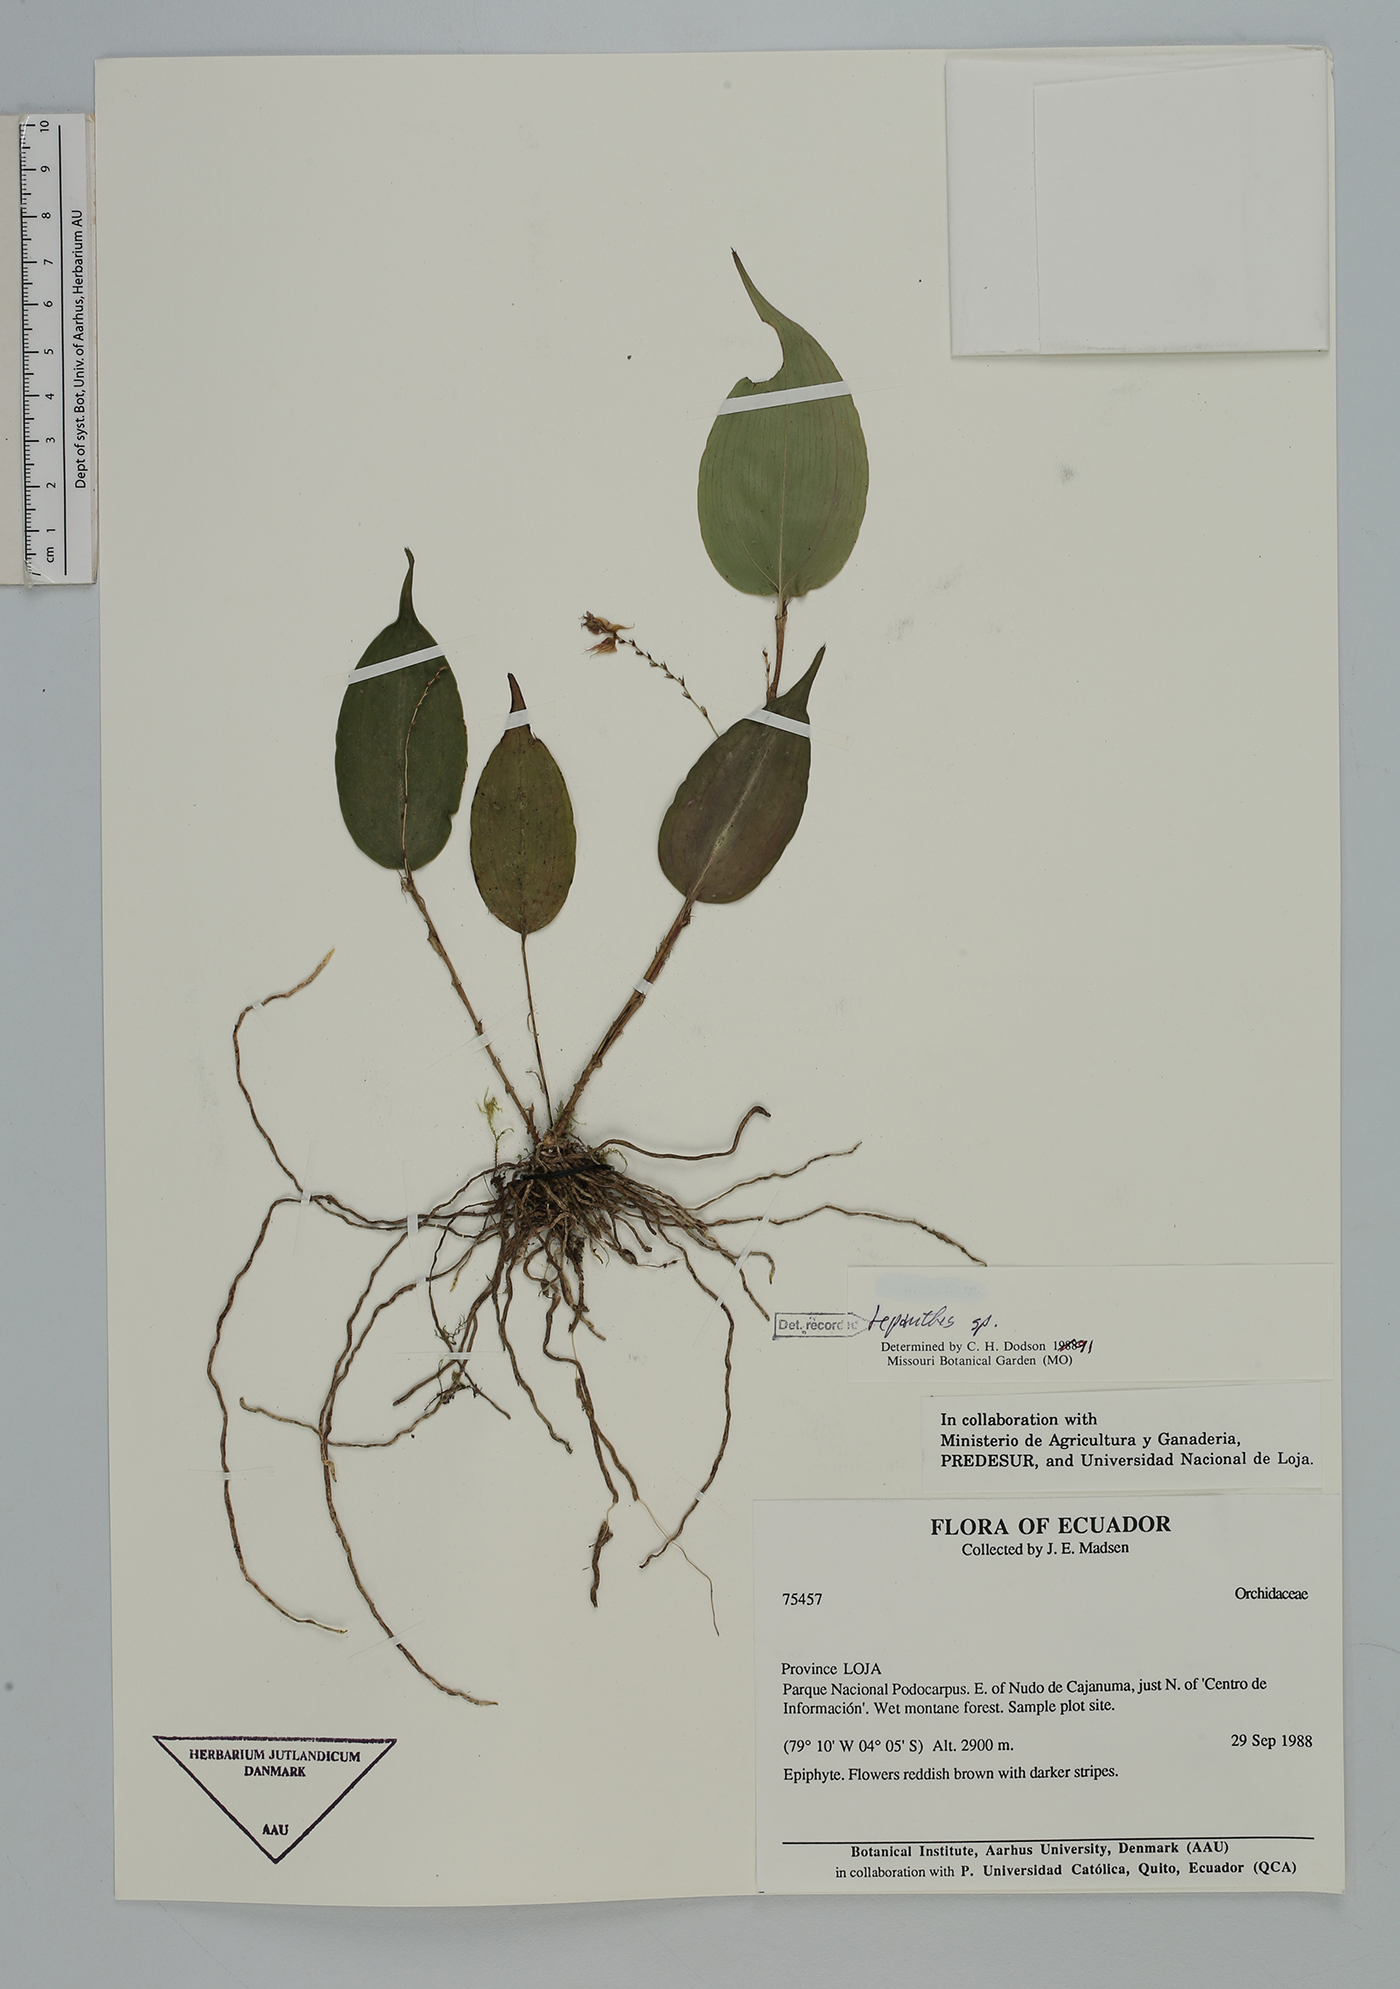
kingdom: Plantae
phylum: Tracheophyta
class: Liliopsida
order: Asparagales
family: Orchidaceae
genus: Lepanthes
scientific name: Lepanthes
